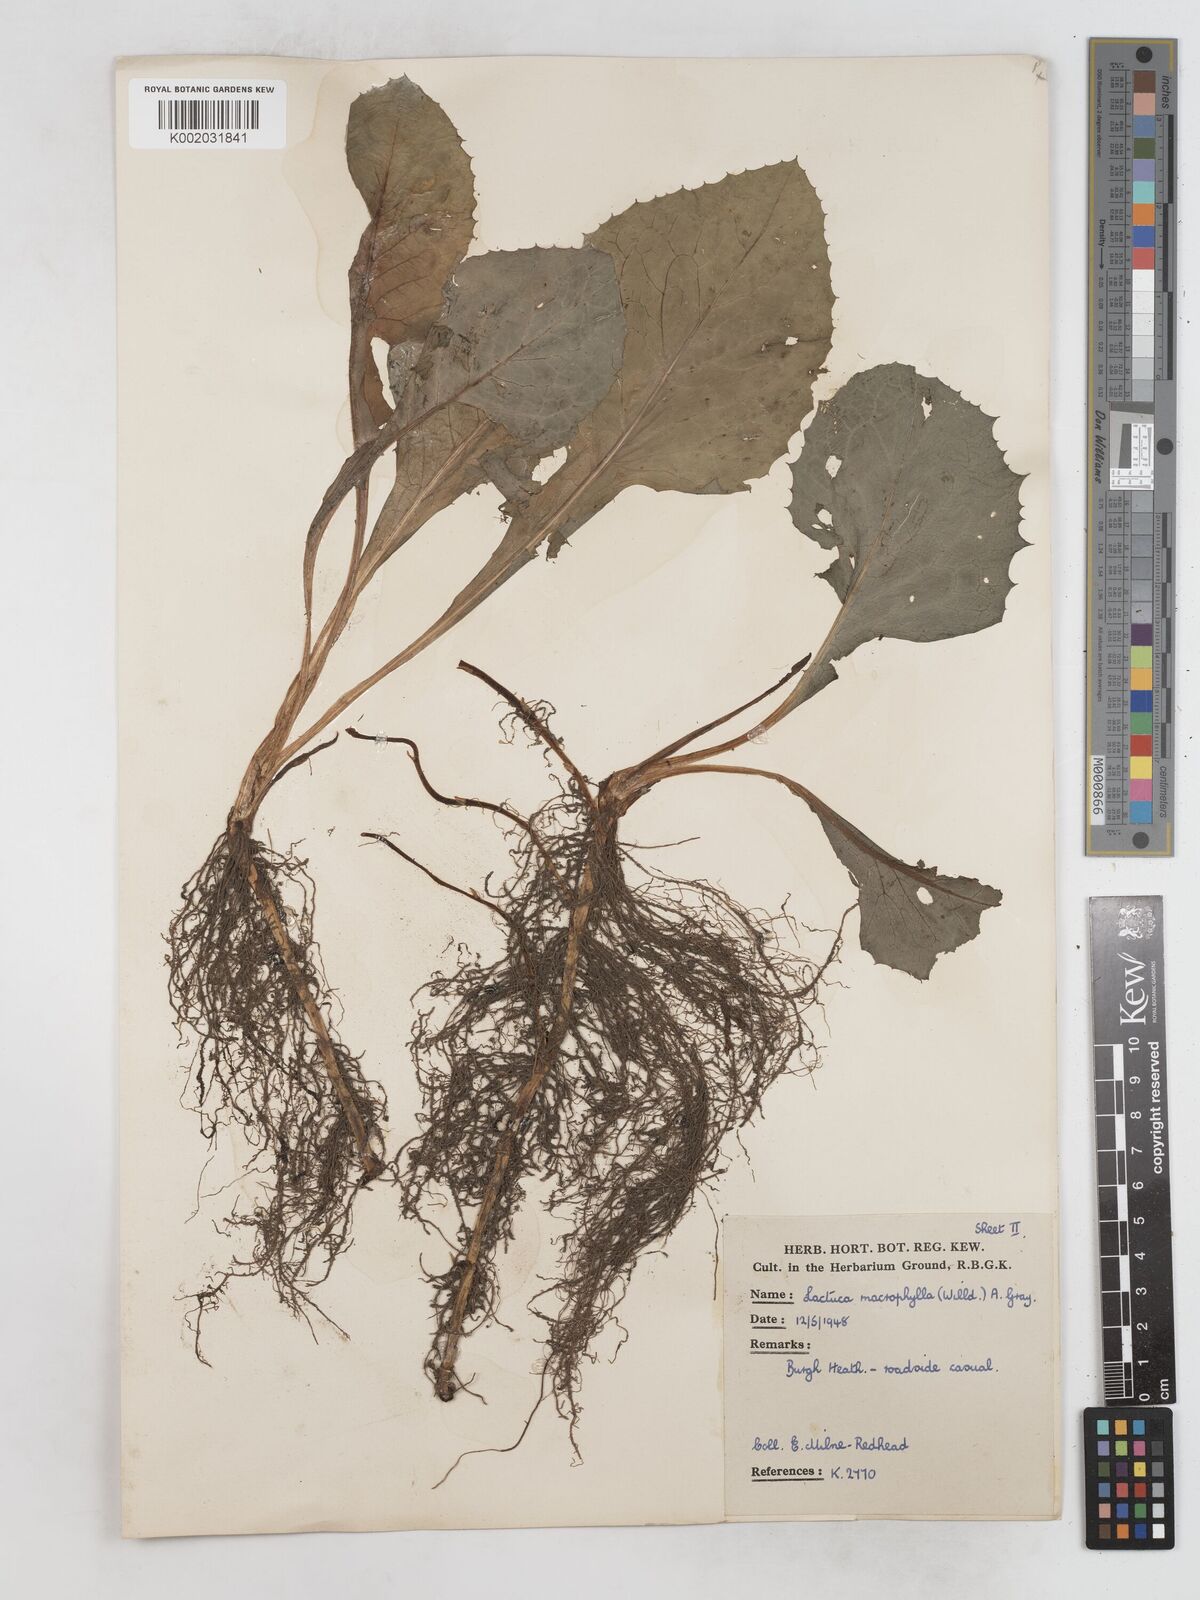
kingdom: Plantae
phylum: Tracheophyta
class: Magnoliopsida
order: Asterales
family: Asteraceae
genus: Lactuca
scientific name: Lactuca macrophylla
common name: Common blue-sow-thistle
